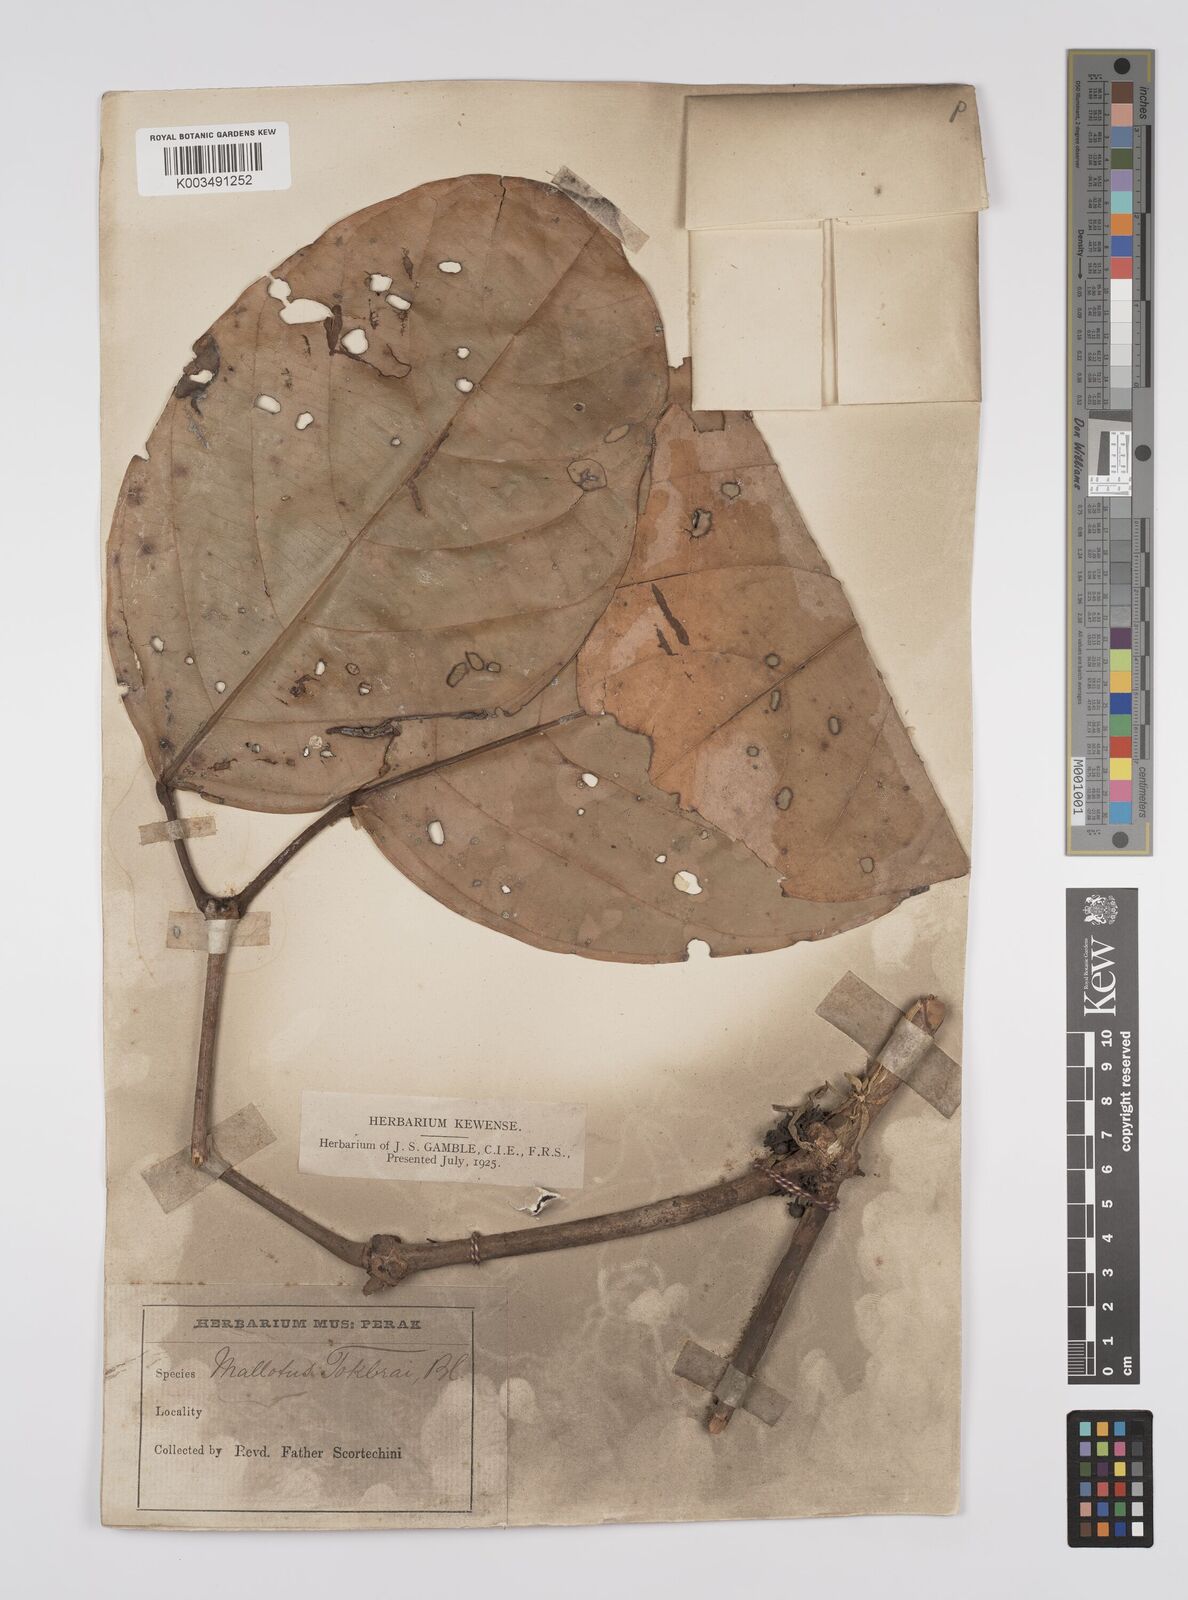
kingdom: Plantae
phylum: Tracheophyta
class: Magnoliopsida
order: Malpighiales
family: Euphorbiaceae
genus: Blumeodendron
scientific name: Blumeodendron tokbrai
